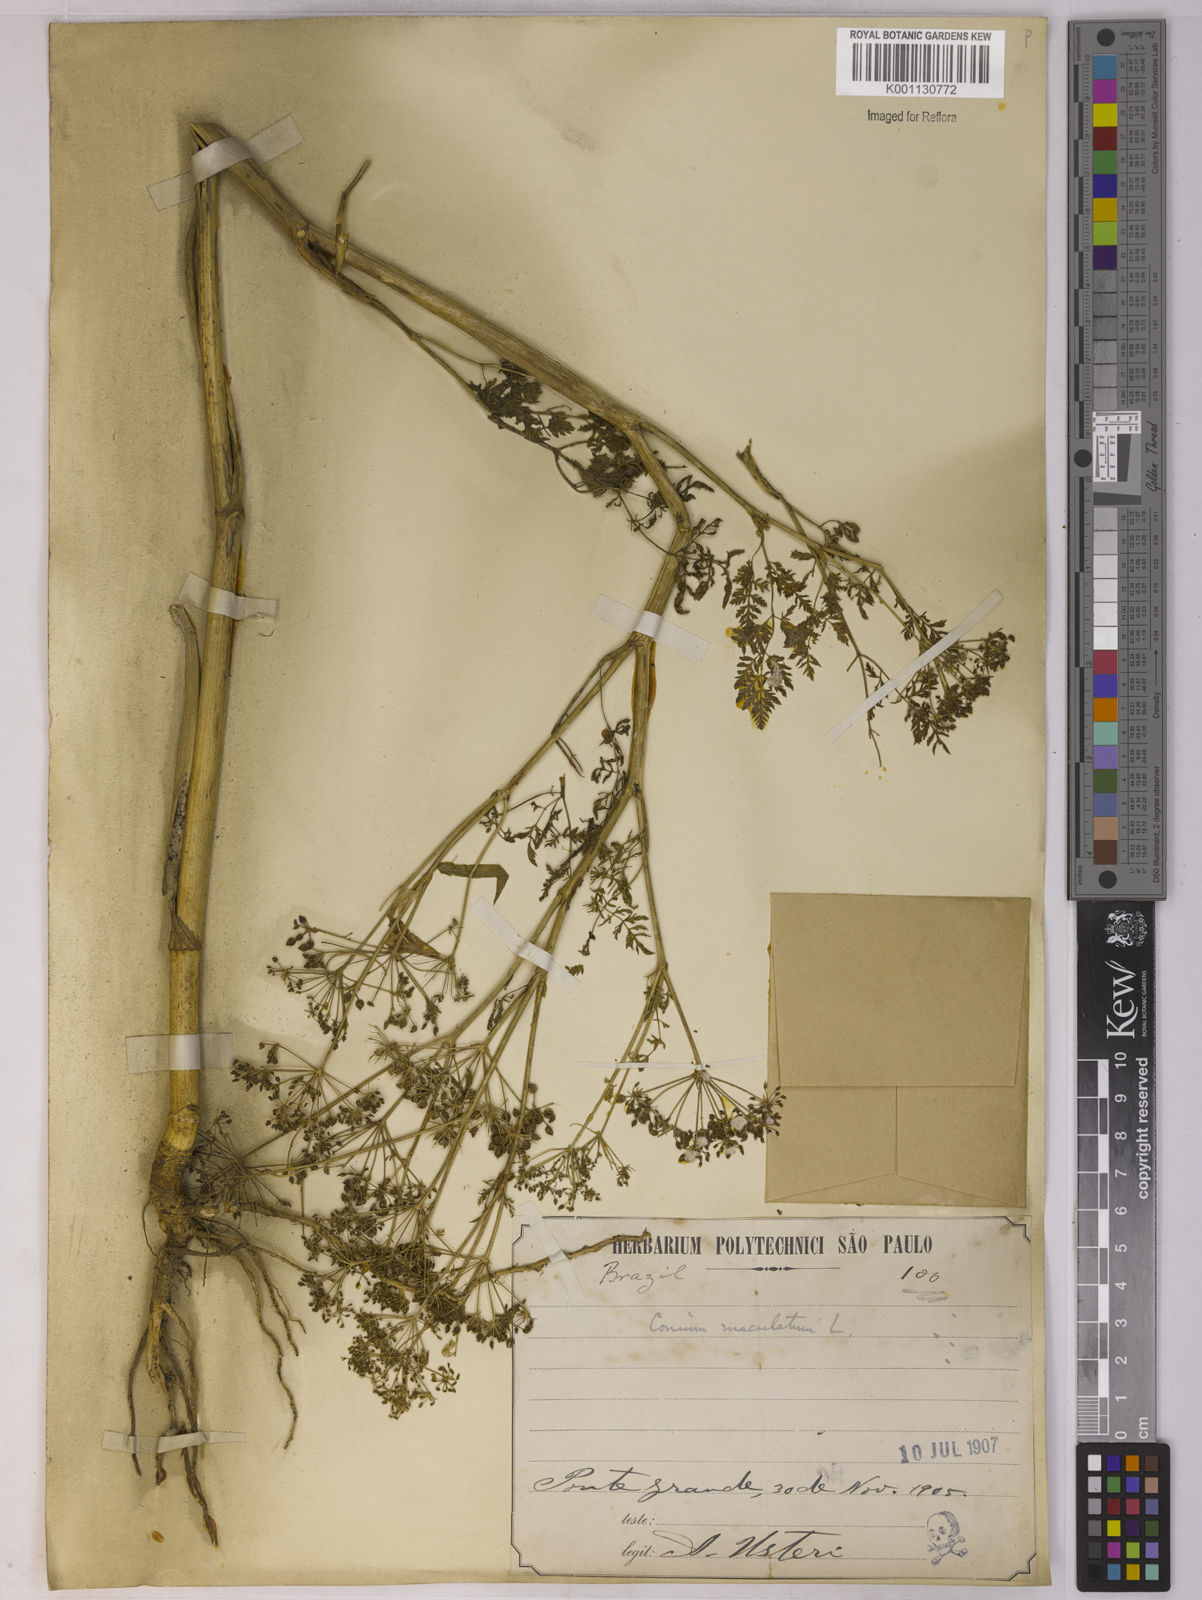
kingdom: Plantae
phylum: Tracheophyta
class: Magnoliopsida
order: Apiales
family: Apiaceae
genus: Conium
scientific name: Conium maculatum
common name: Hemlock
